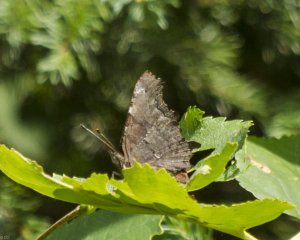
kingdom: Animalia
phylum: Arthropoda
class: Insecta
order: Lepidoptera
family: Nymphalidae
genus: Polygonia
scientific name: Polygonia faunus
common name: Green Comma
